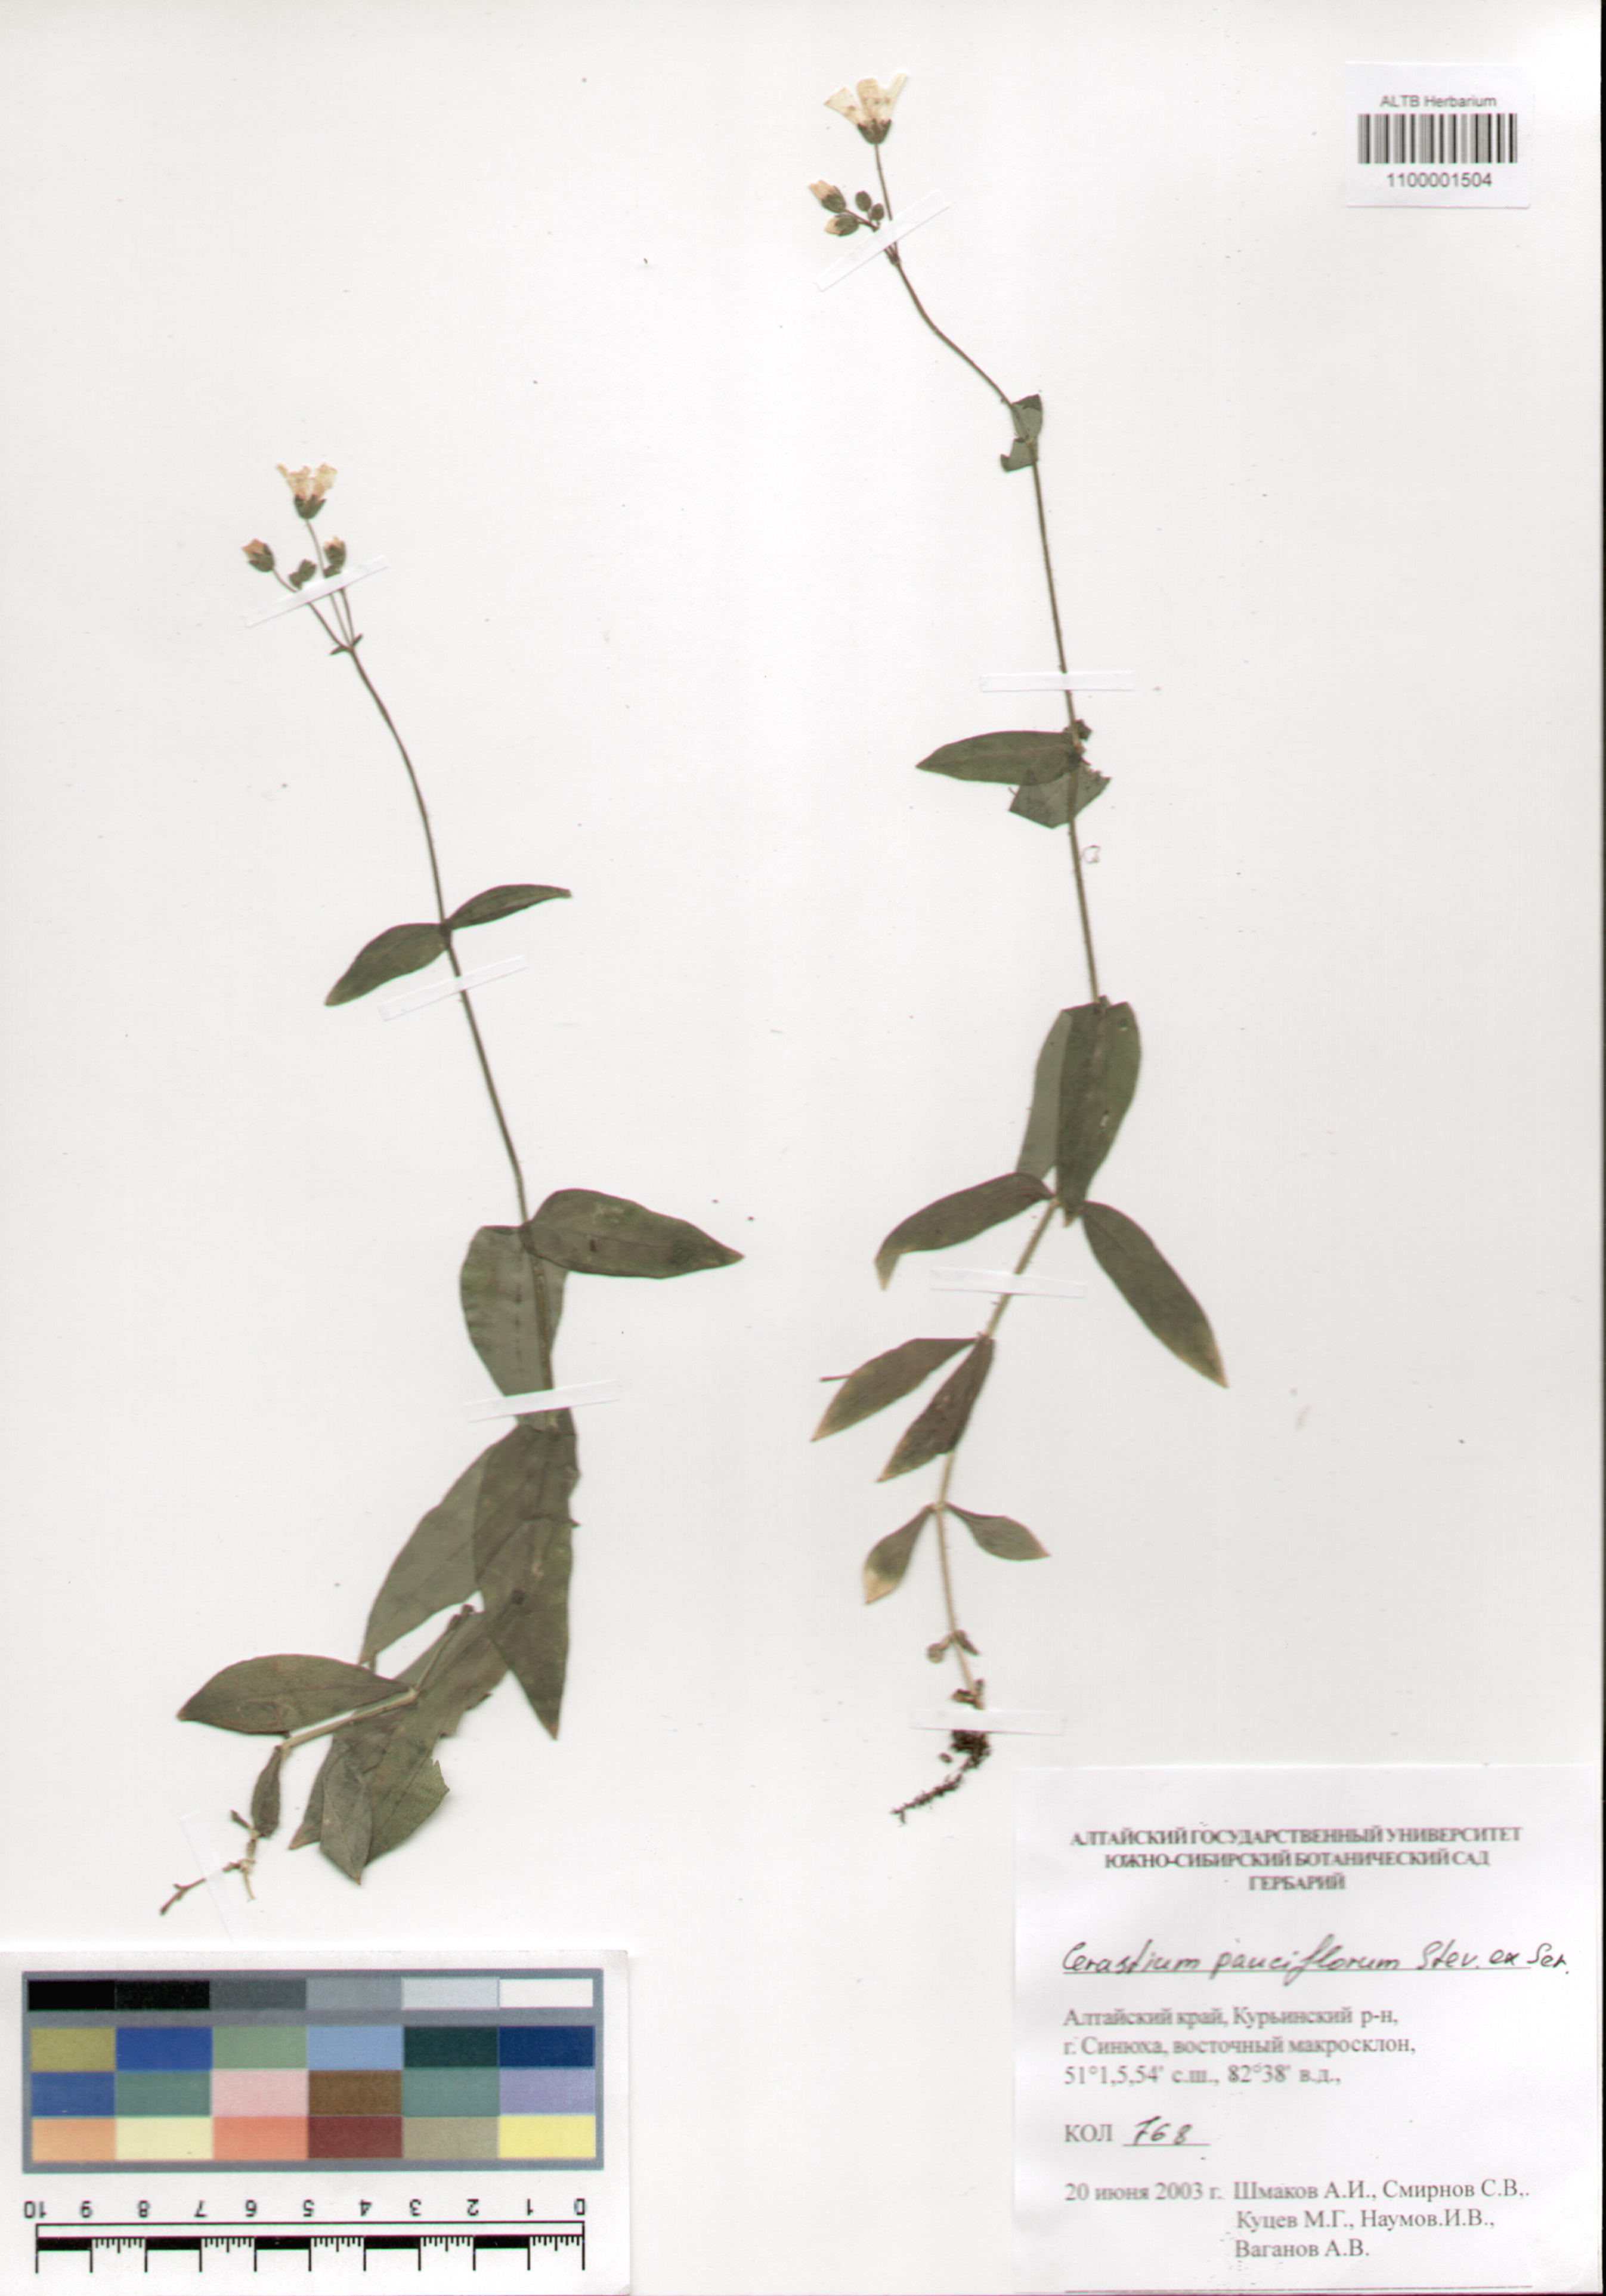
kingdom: Plantae
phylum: Tracheophyta
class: Magnoliopsida
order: Caryophyllales
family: Caryophyllaceae
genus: Cerastium
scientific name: Cerastium pauciflorum
